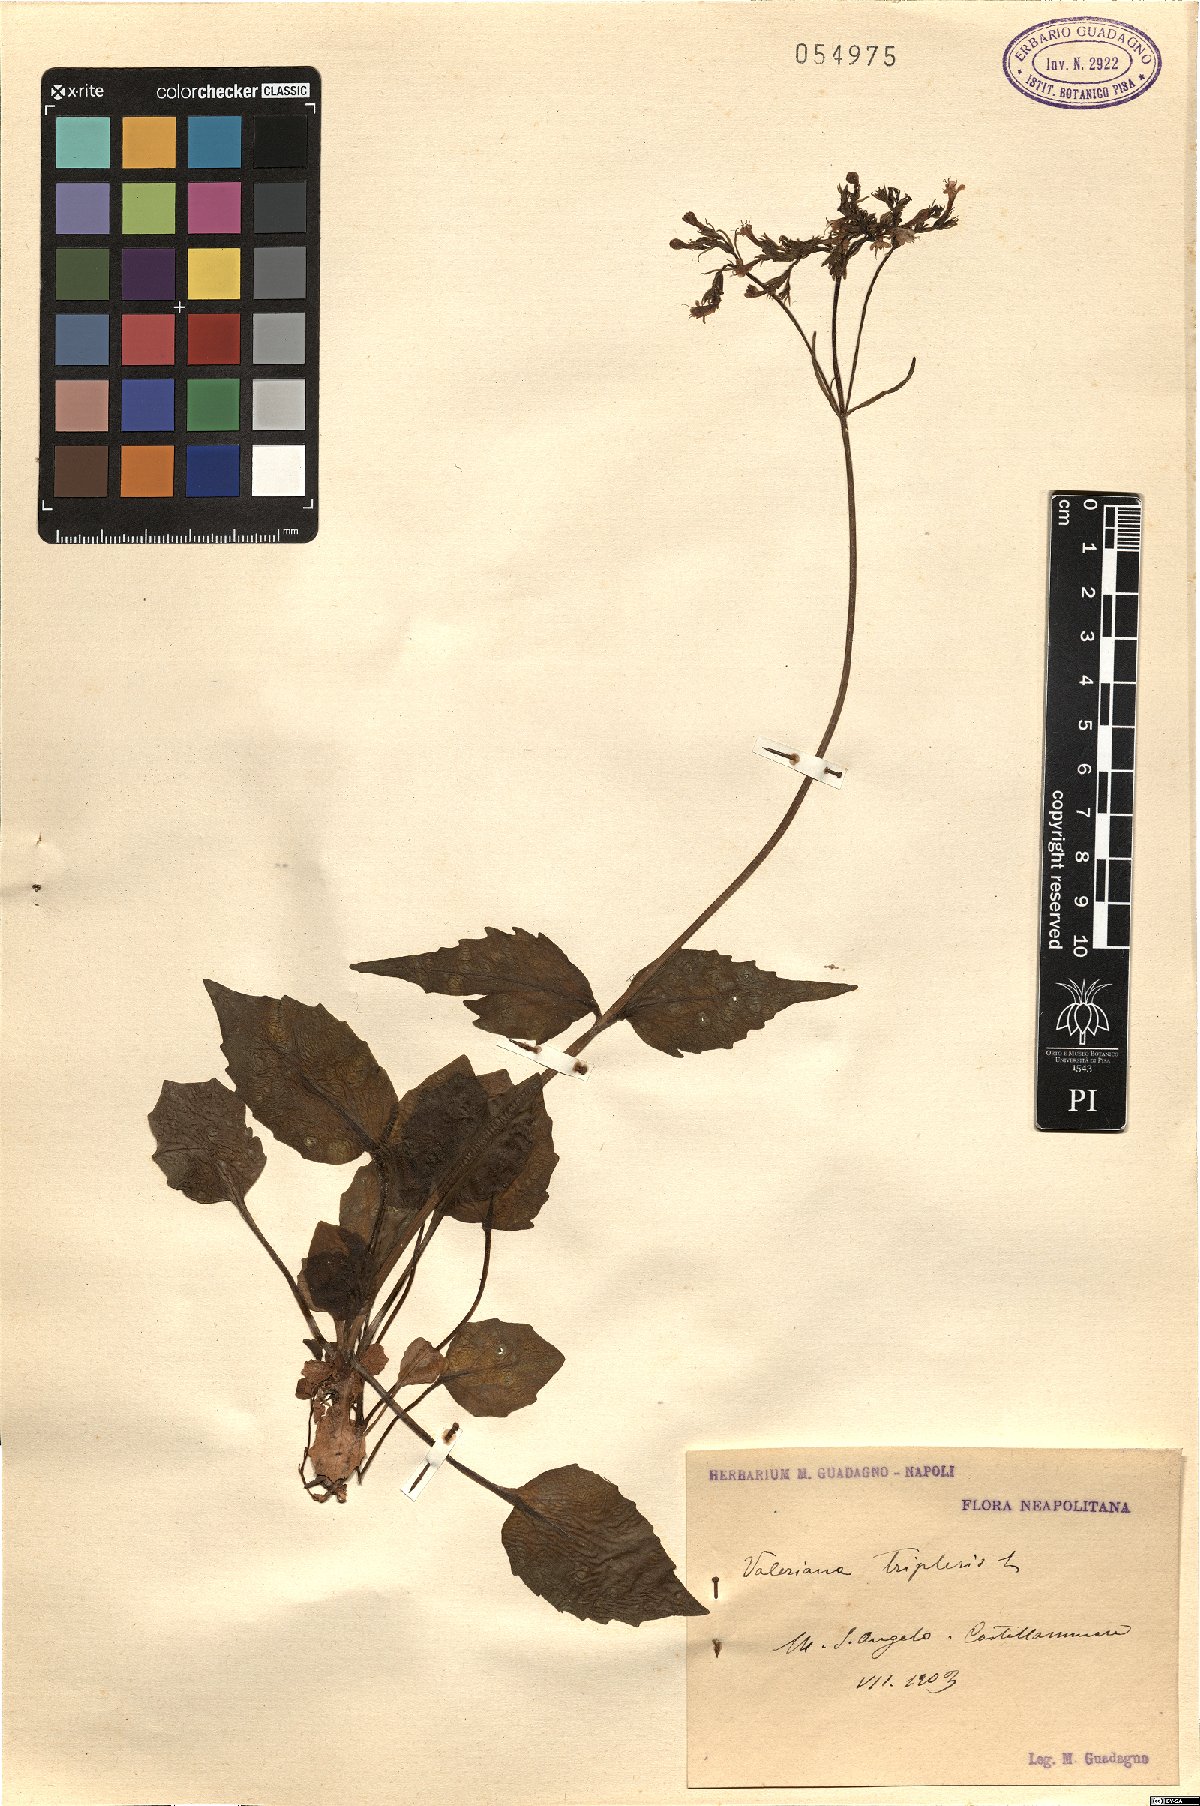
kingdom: Plantae
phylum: Tracheophyta
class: Magnoliopsida
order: Dipsacales
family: Caprifoliaceae
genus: Valeriana
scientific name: Valeriana tripteris
